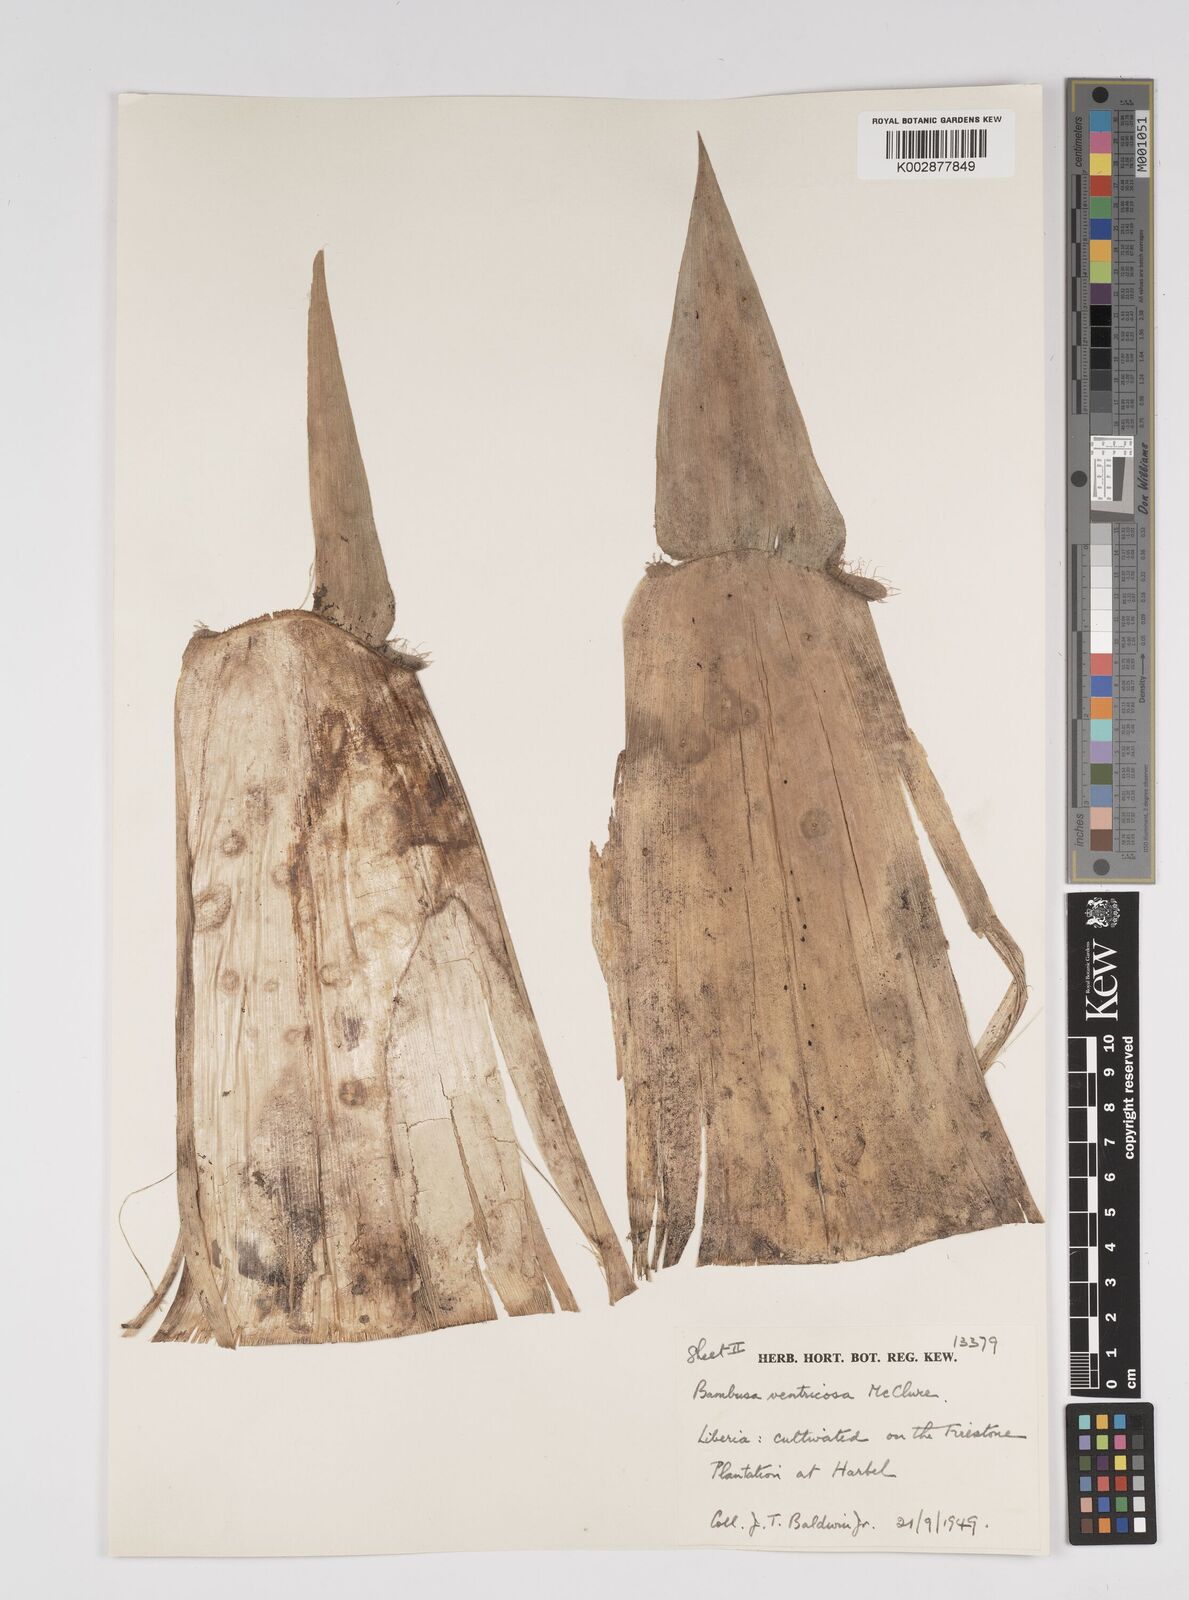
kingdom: Plantae
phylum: Tracheophyta
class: Liliopsida
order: Poales
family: Poaceae
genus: Bambusa
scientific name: Bambusa ventricosa
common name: Buddha bamboo
